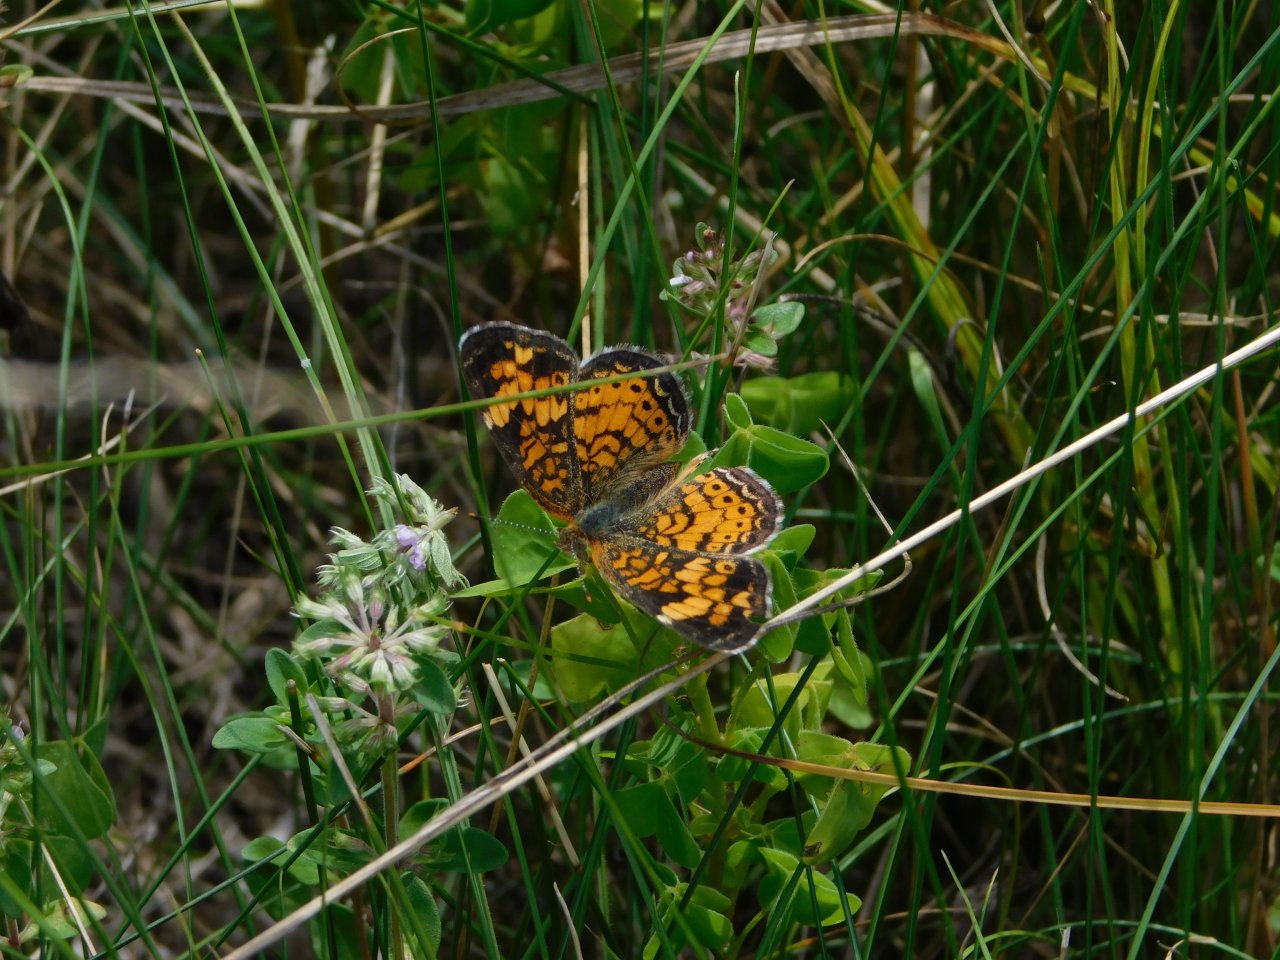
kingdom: Animalia
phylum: Arthropoda
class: Insecta
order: Lepidoptera
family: Nymphalidae
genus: Phyciodes
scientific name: Phyciodes tharos
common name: Pearl Crescent
